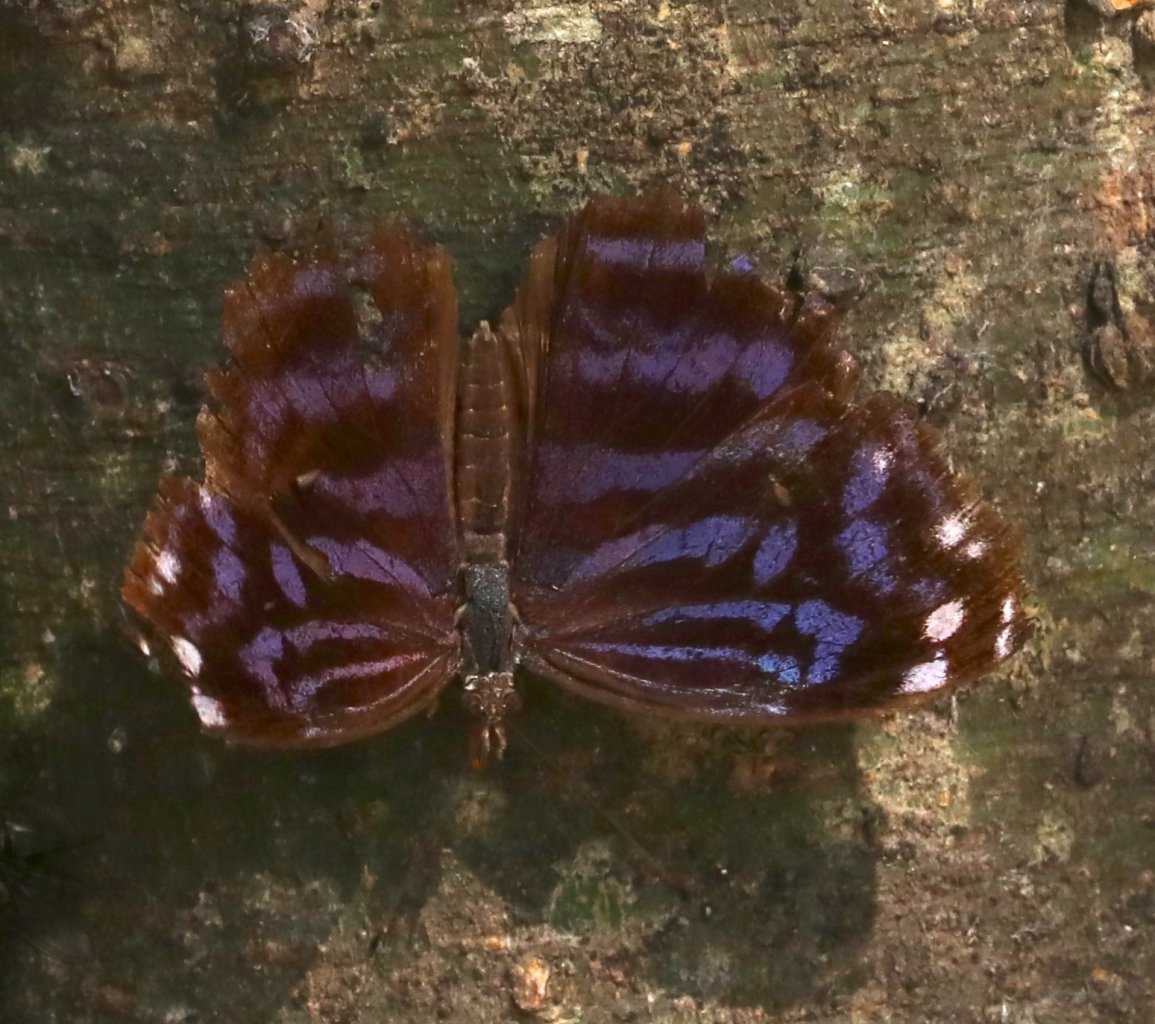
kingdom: Animalia
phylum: Arthropoda
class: Insecta
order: Lepidoptera
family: Nymphalidae
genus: Myscelia
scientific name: Myscelia ethusa
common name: Mexican Bluewing
